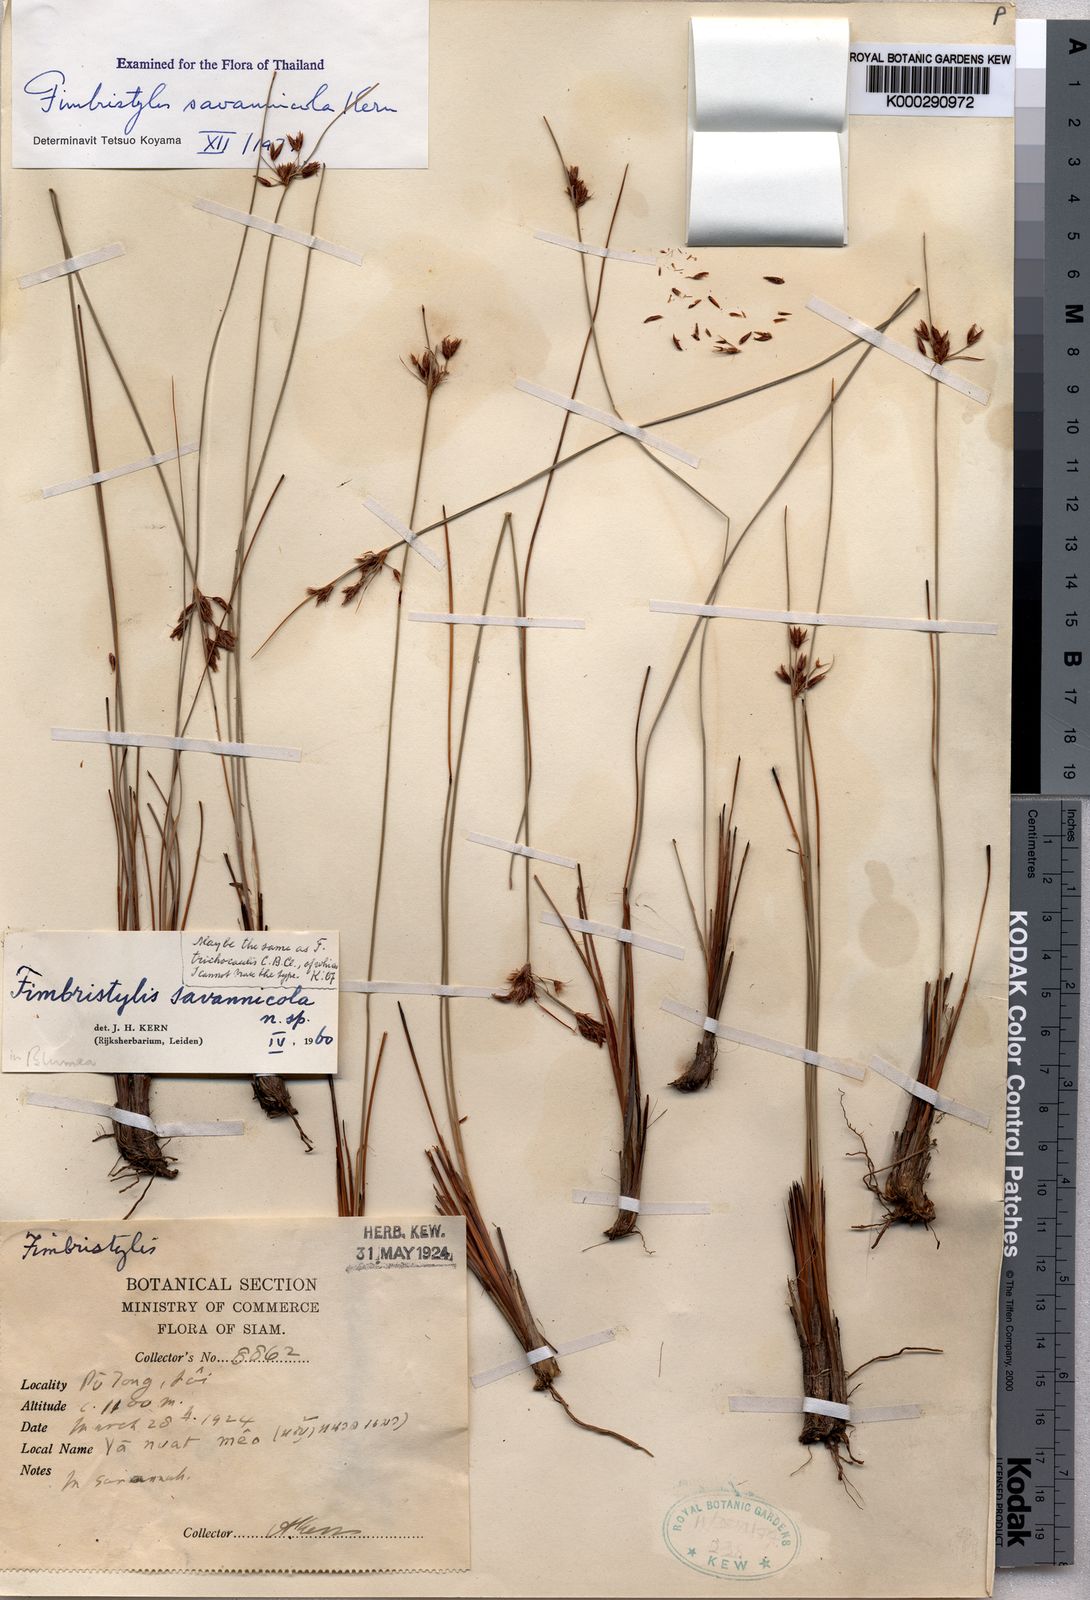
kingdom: Plantae
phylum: Tracheophyta
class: Liliopsida
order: Poales
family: Cyperaceae
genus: Fimbristylis
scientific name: Fimbristylis savannicola
